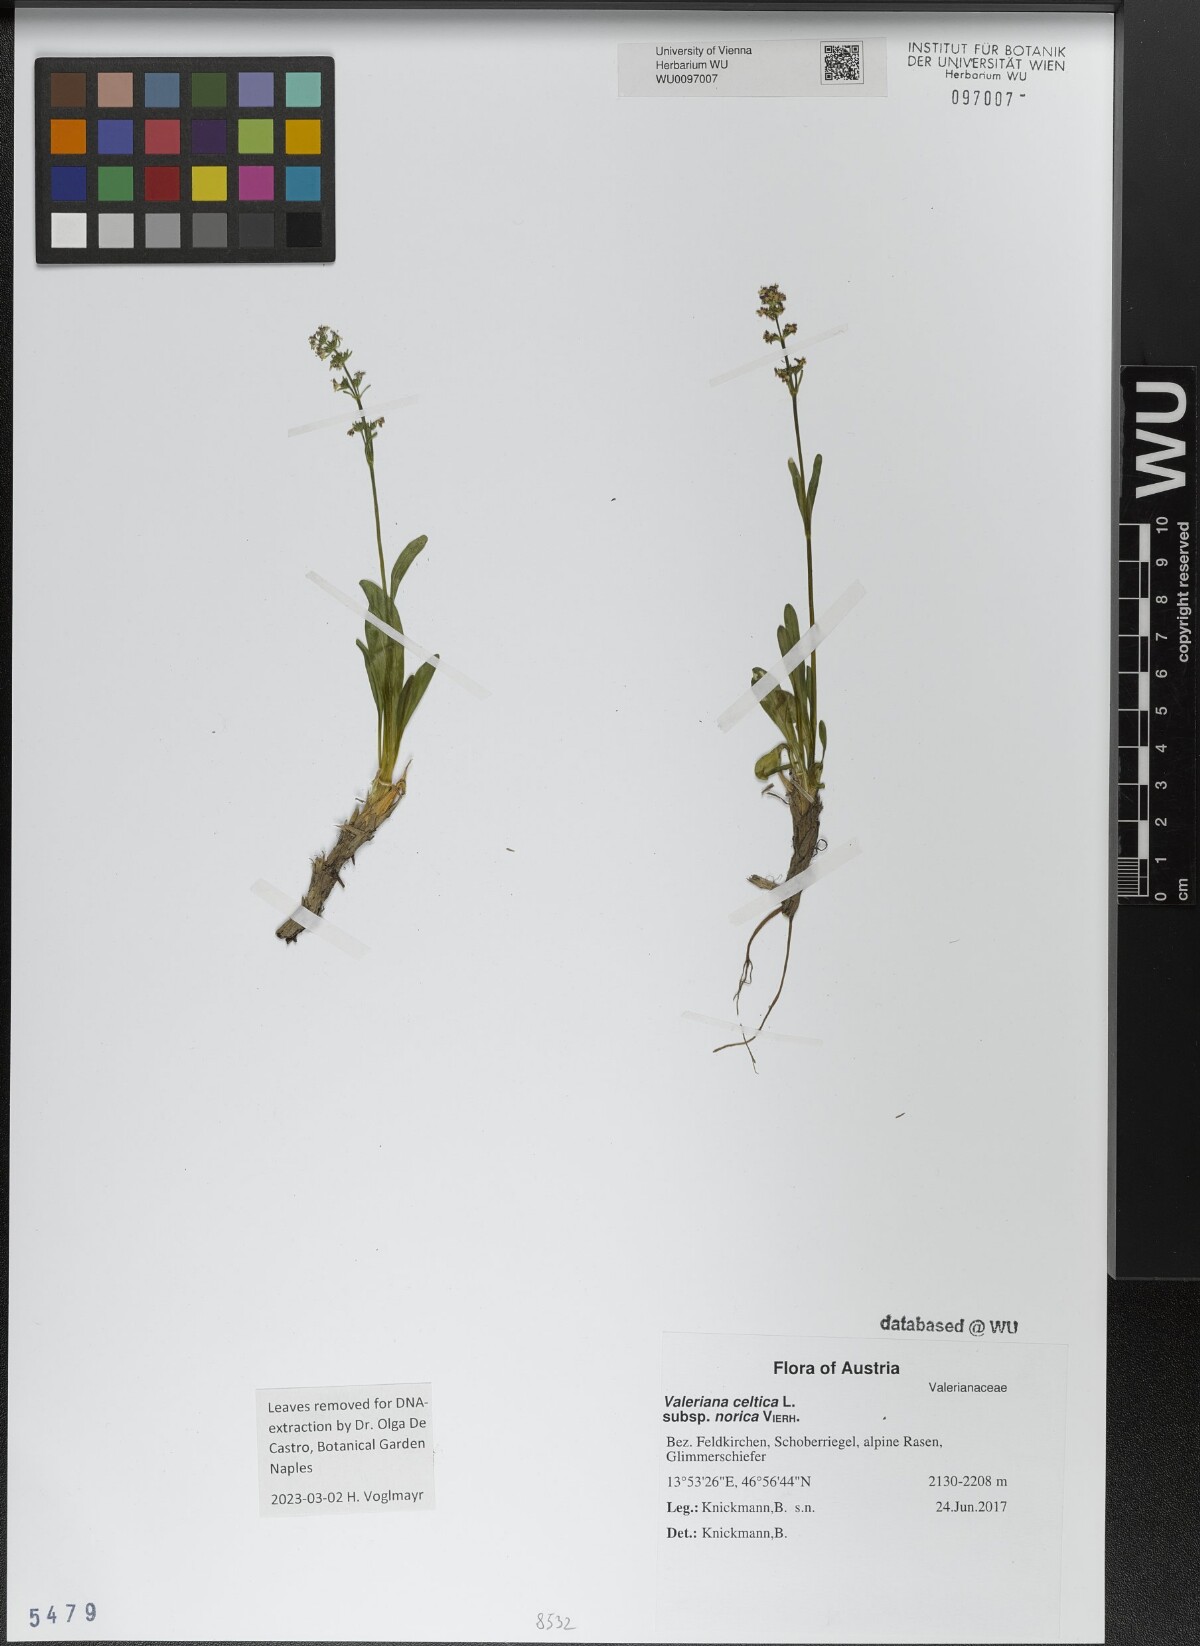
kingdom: Plantae
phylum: Tracheophyta
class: Magnoliopsida
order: Dipsacales
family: Caprifoliaceae
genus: Valeriana
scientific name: Valeriana celtica
